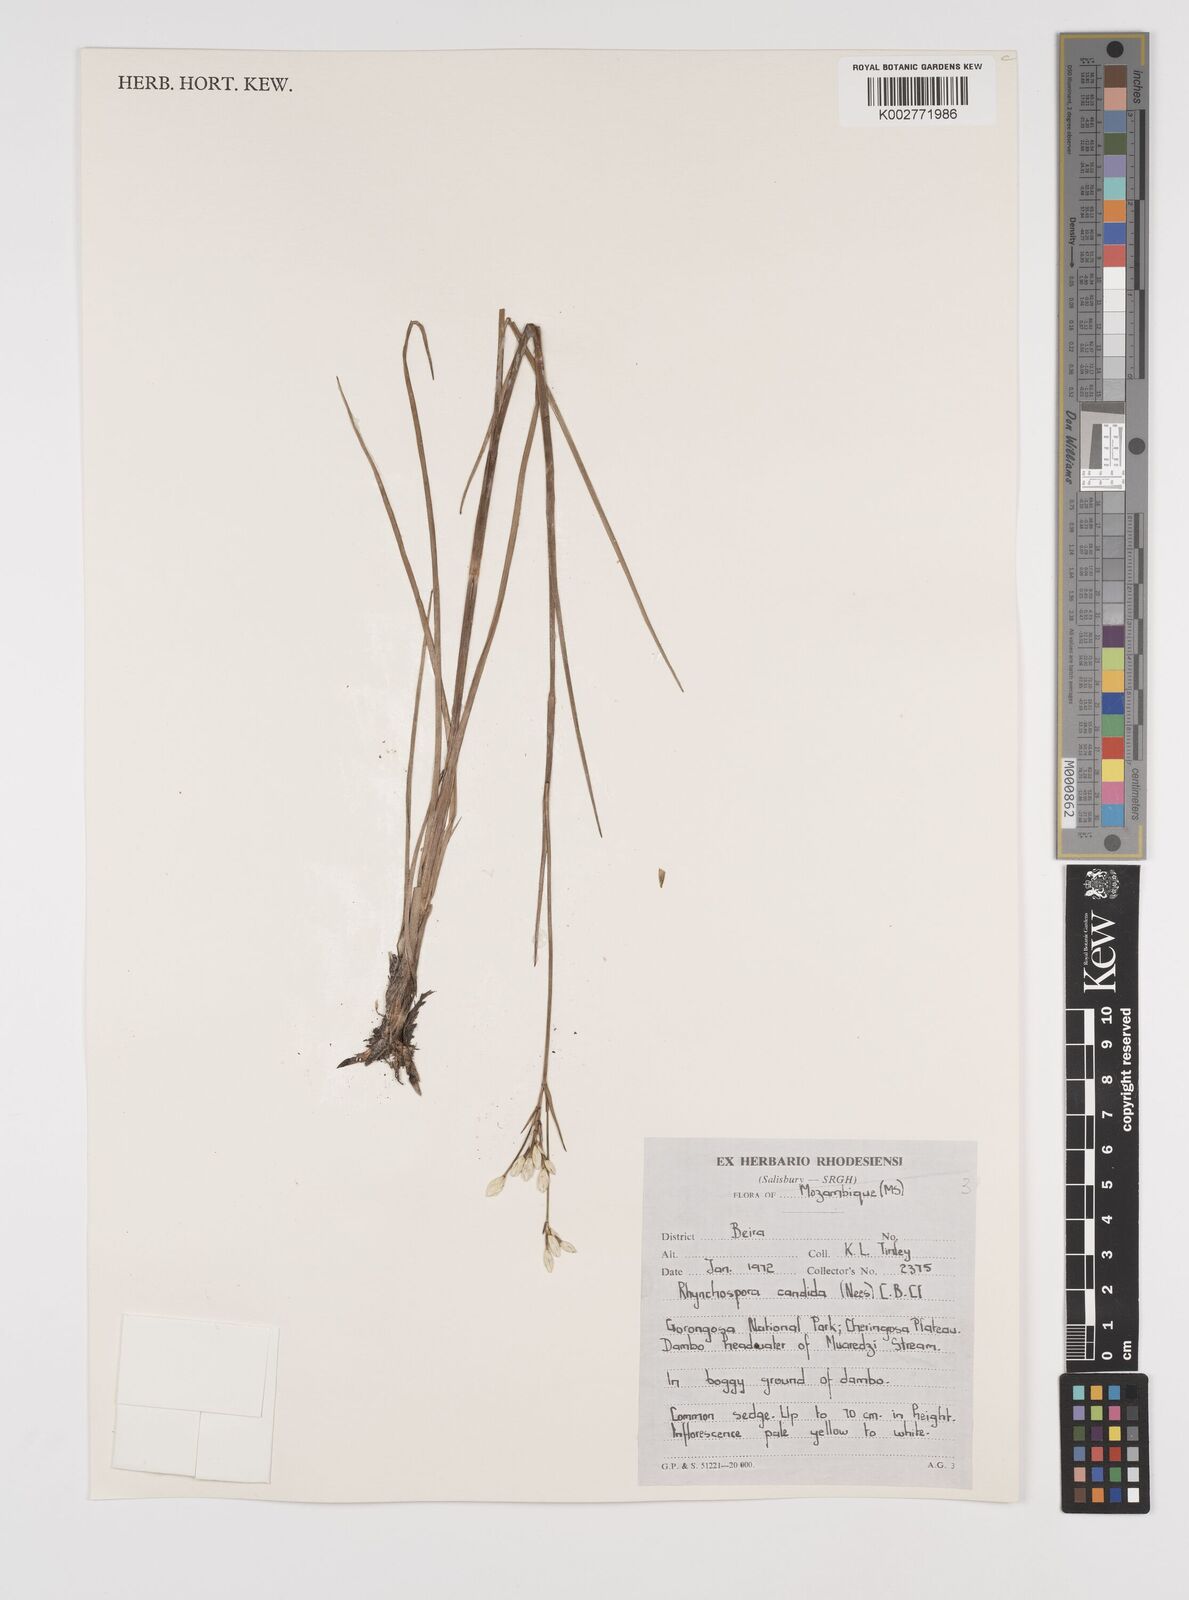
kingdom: Plantae
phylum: Tracheophyta
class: Liliopsida
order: Poales
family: Cyperaceae
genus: Rhynchospora
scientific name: Rhynchospora candida
